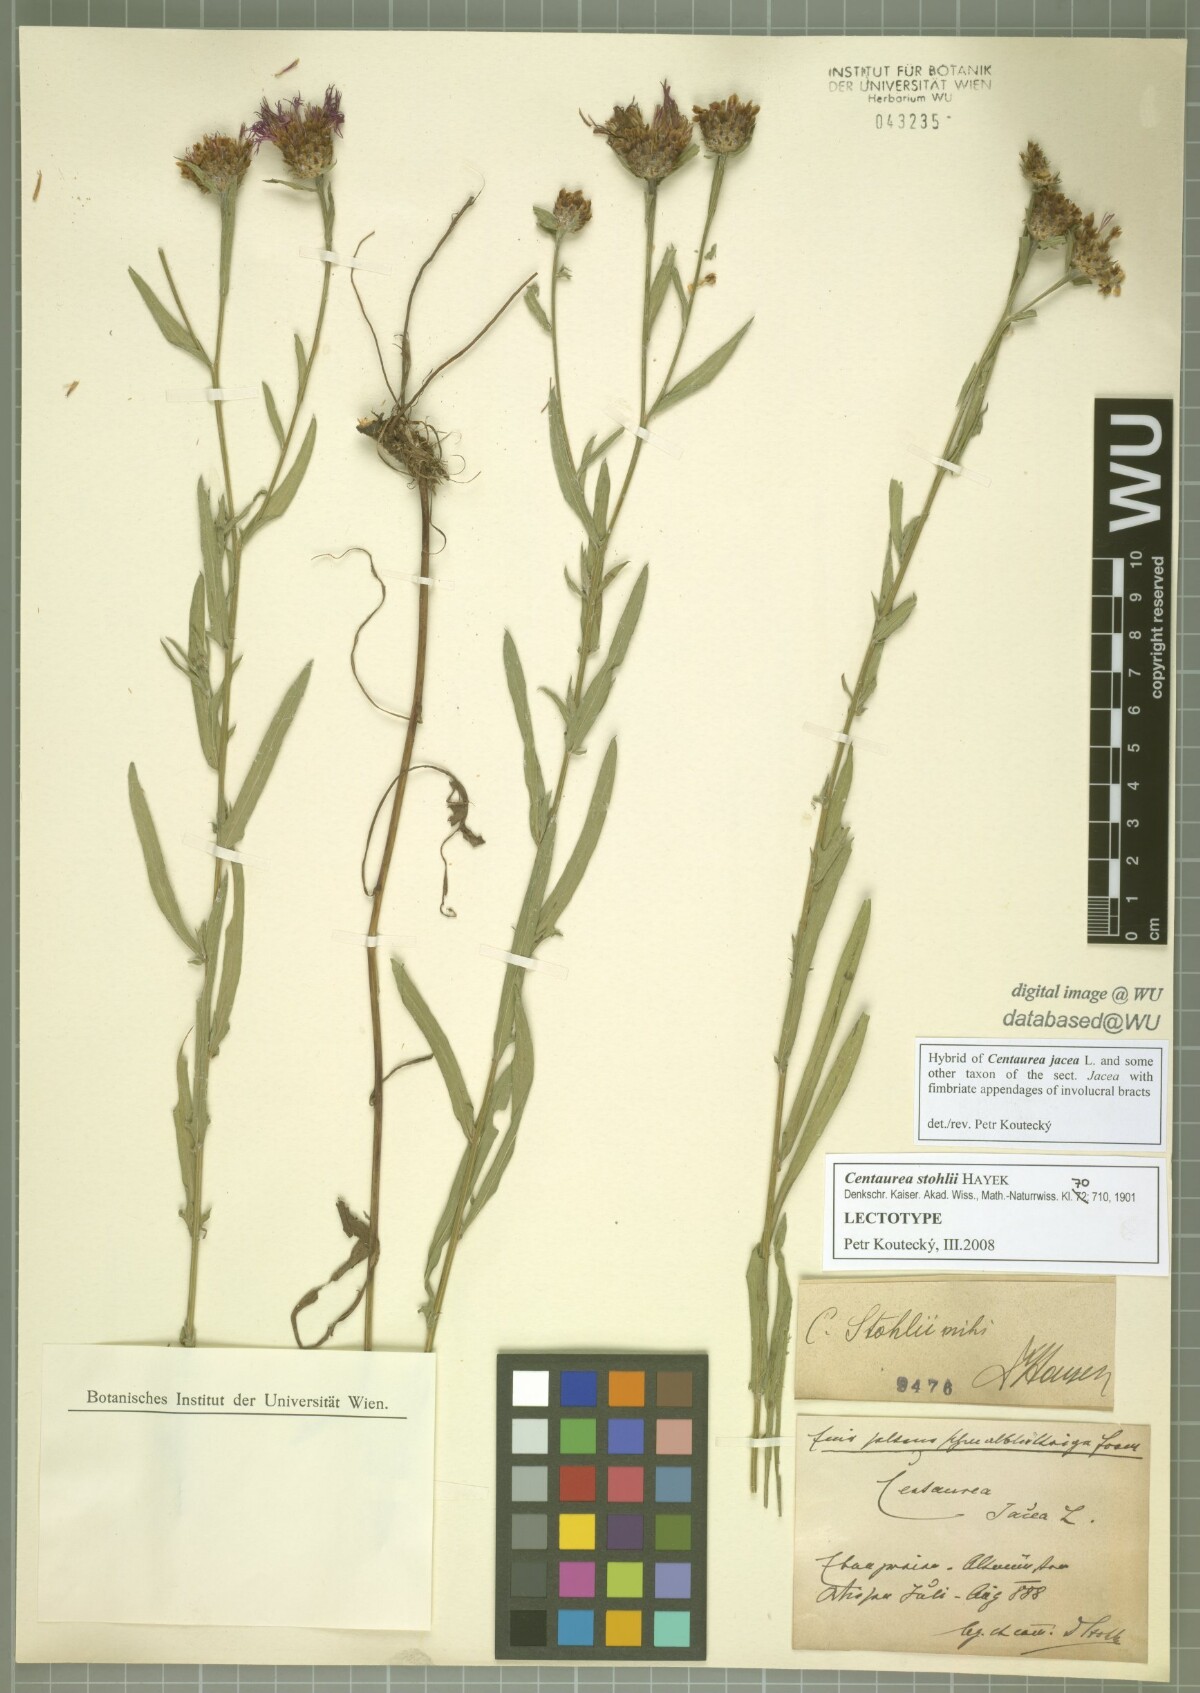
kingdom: Plantae
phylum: Tracheophyta
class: Magnoliopsida
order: Asterales
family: Asteraceae
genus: Centaurea
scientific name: Centaurea stohlii
